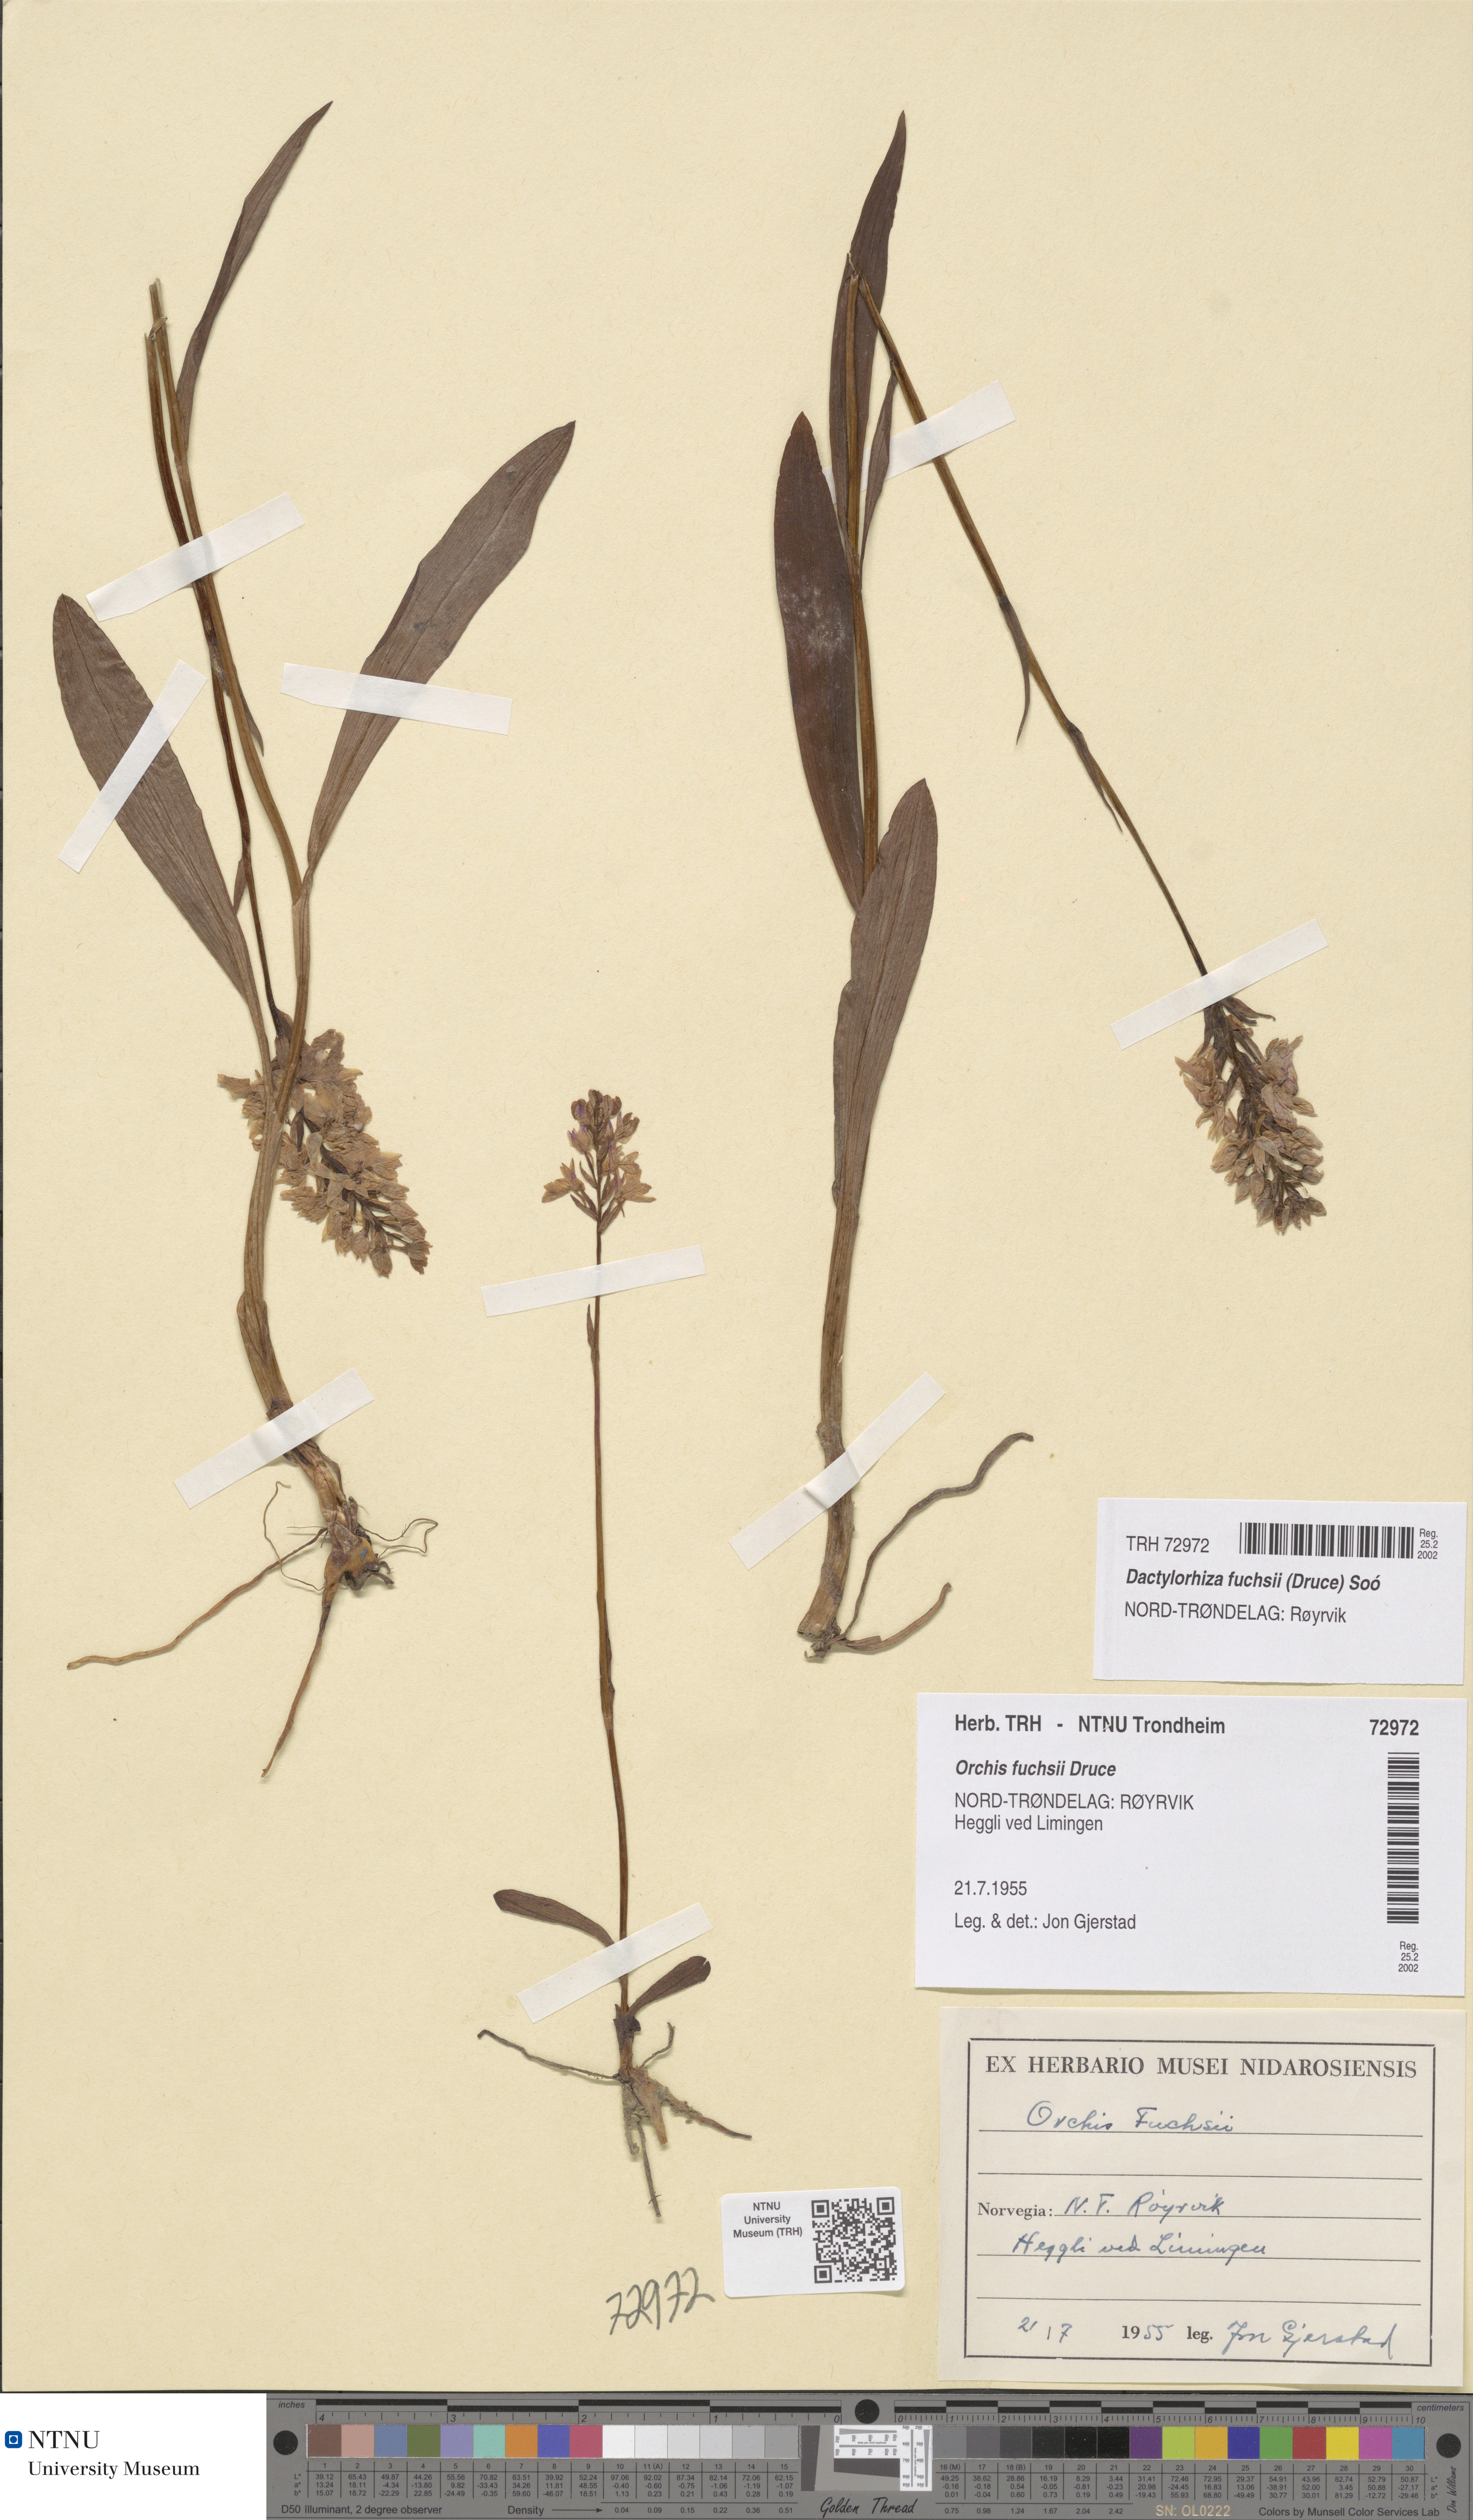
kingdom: Plantae
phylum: Tracheophyta
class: Liliopsida
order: Asparagales
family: Orchidaceae
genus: Dactylorhiza
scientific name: Dactylorhiza maculata
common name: Heath spotted-orchid
